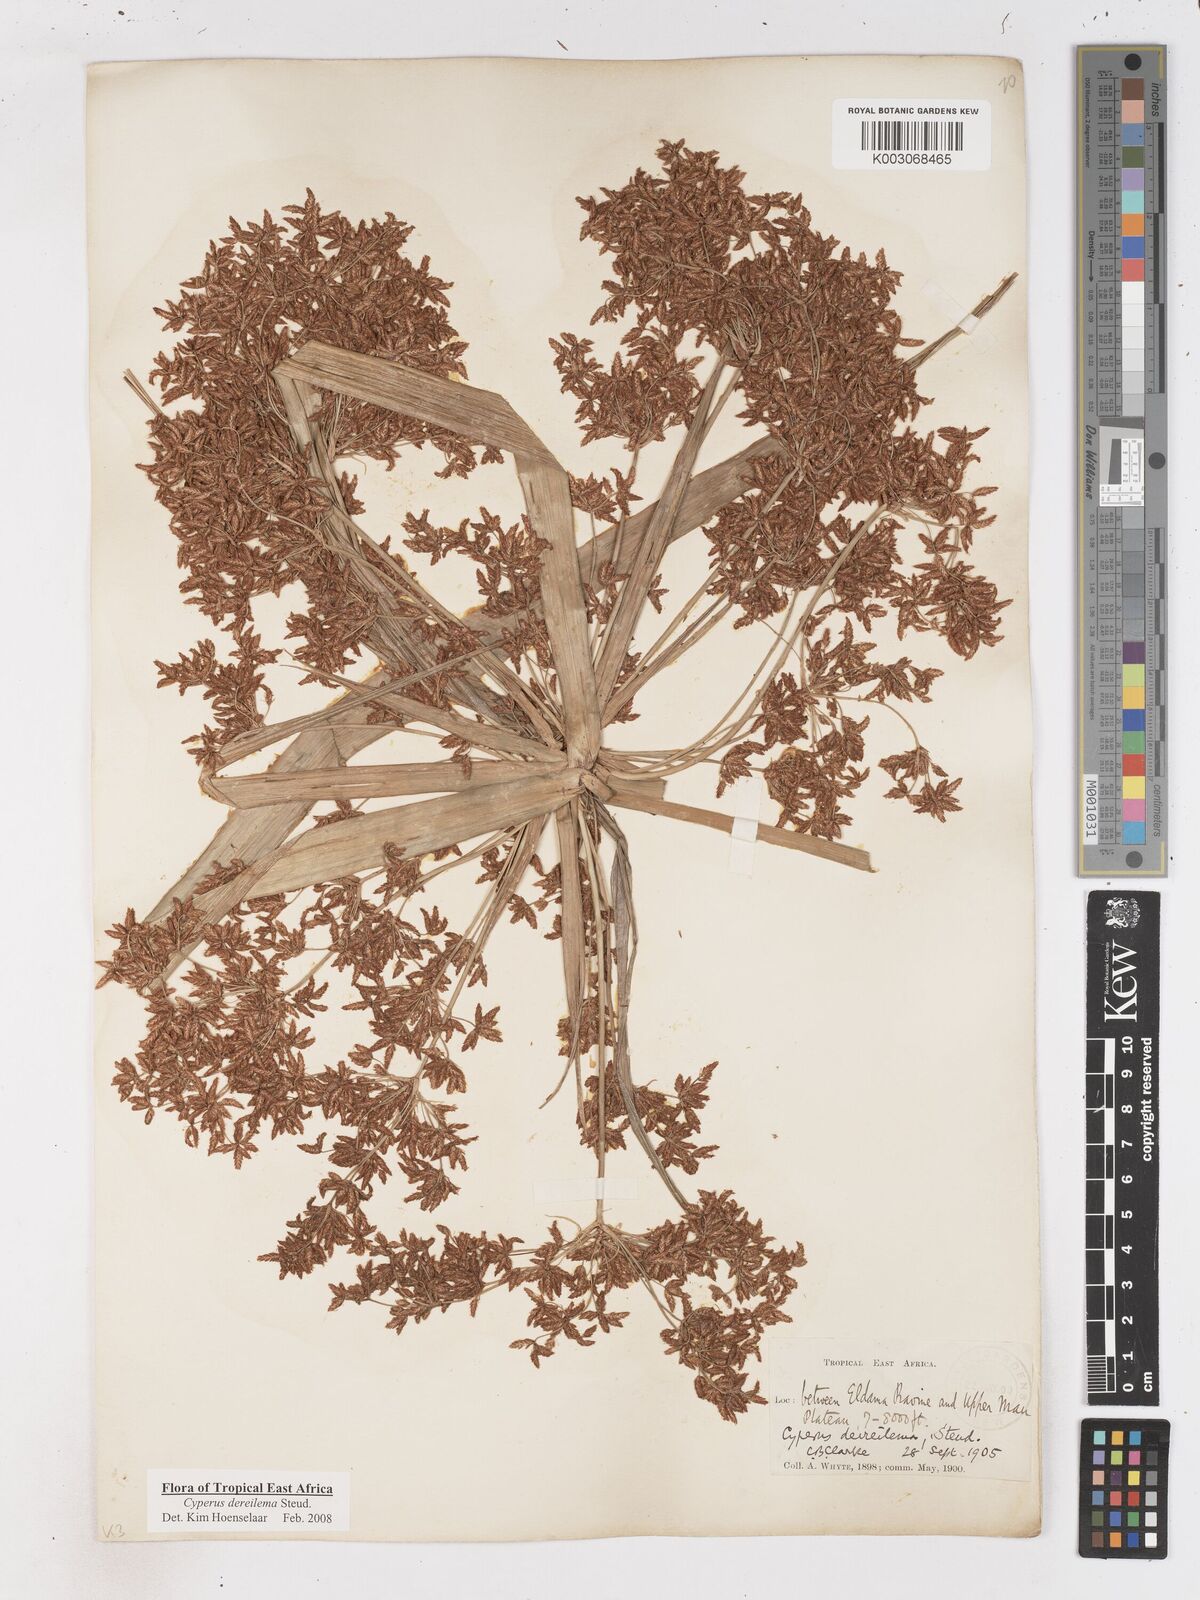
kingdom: Plantae
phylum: Tracheophyta
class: Liliopsida
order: Poales
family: Cyperaceae
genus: Cyperus
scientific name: Cyperus derreilema
